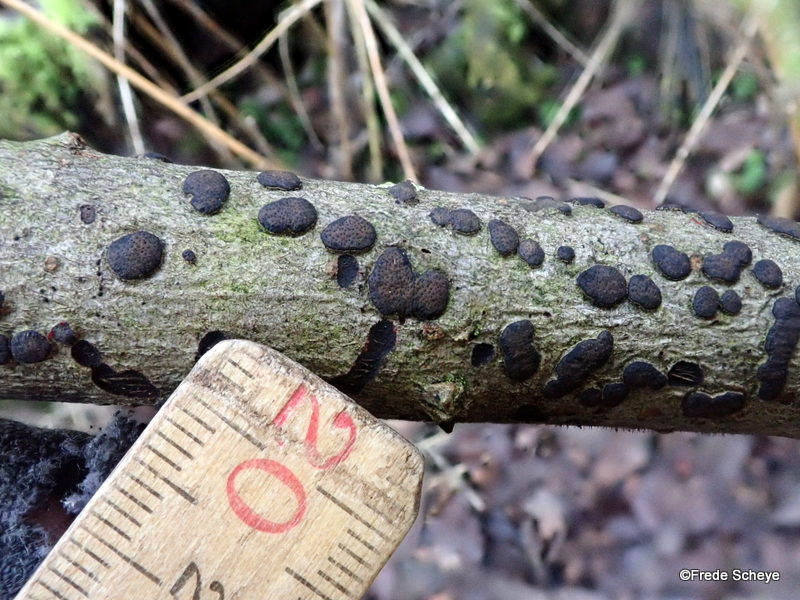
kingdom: Fungi
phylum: Ascomycota
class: Sordariomycetes
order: Xylariales
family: Diatrypaceae
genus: Diatrype
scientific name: Diatrype bullata
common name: pile-kulskorpe
